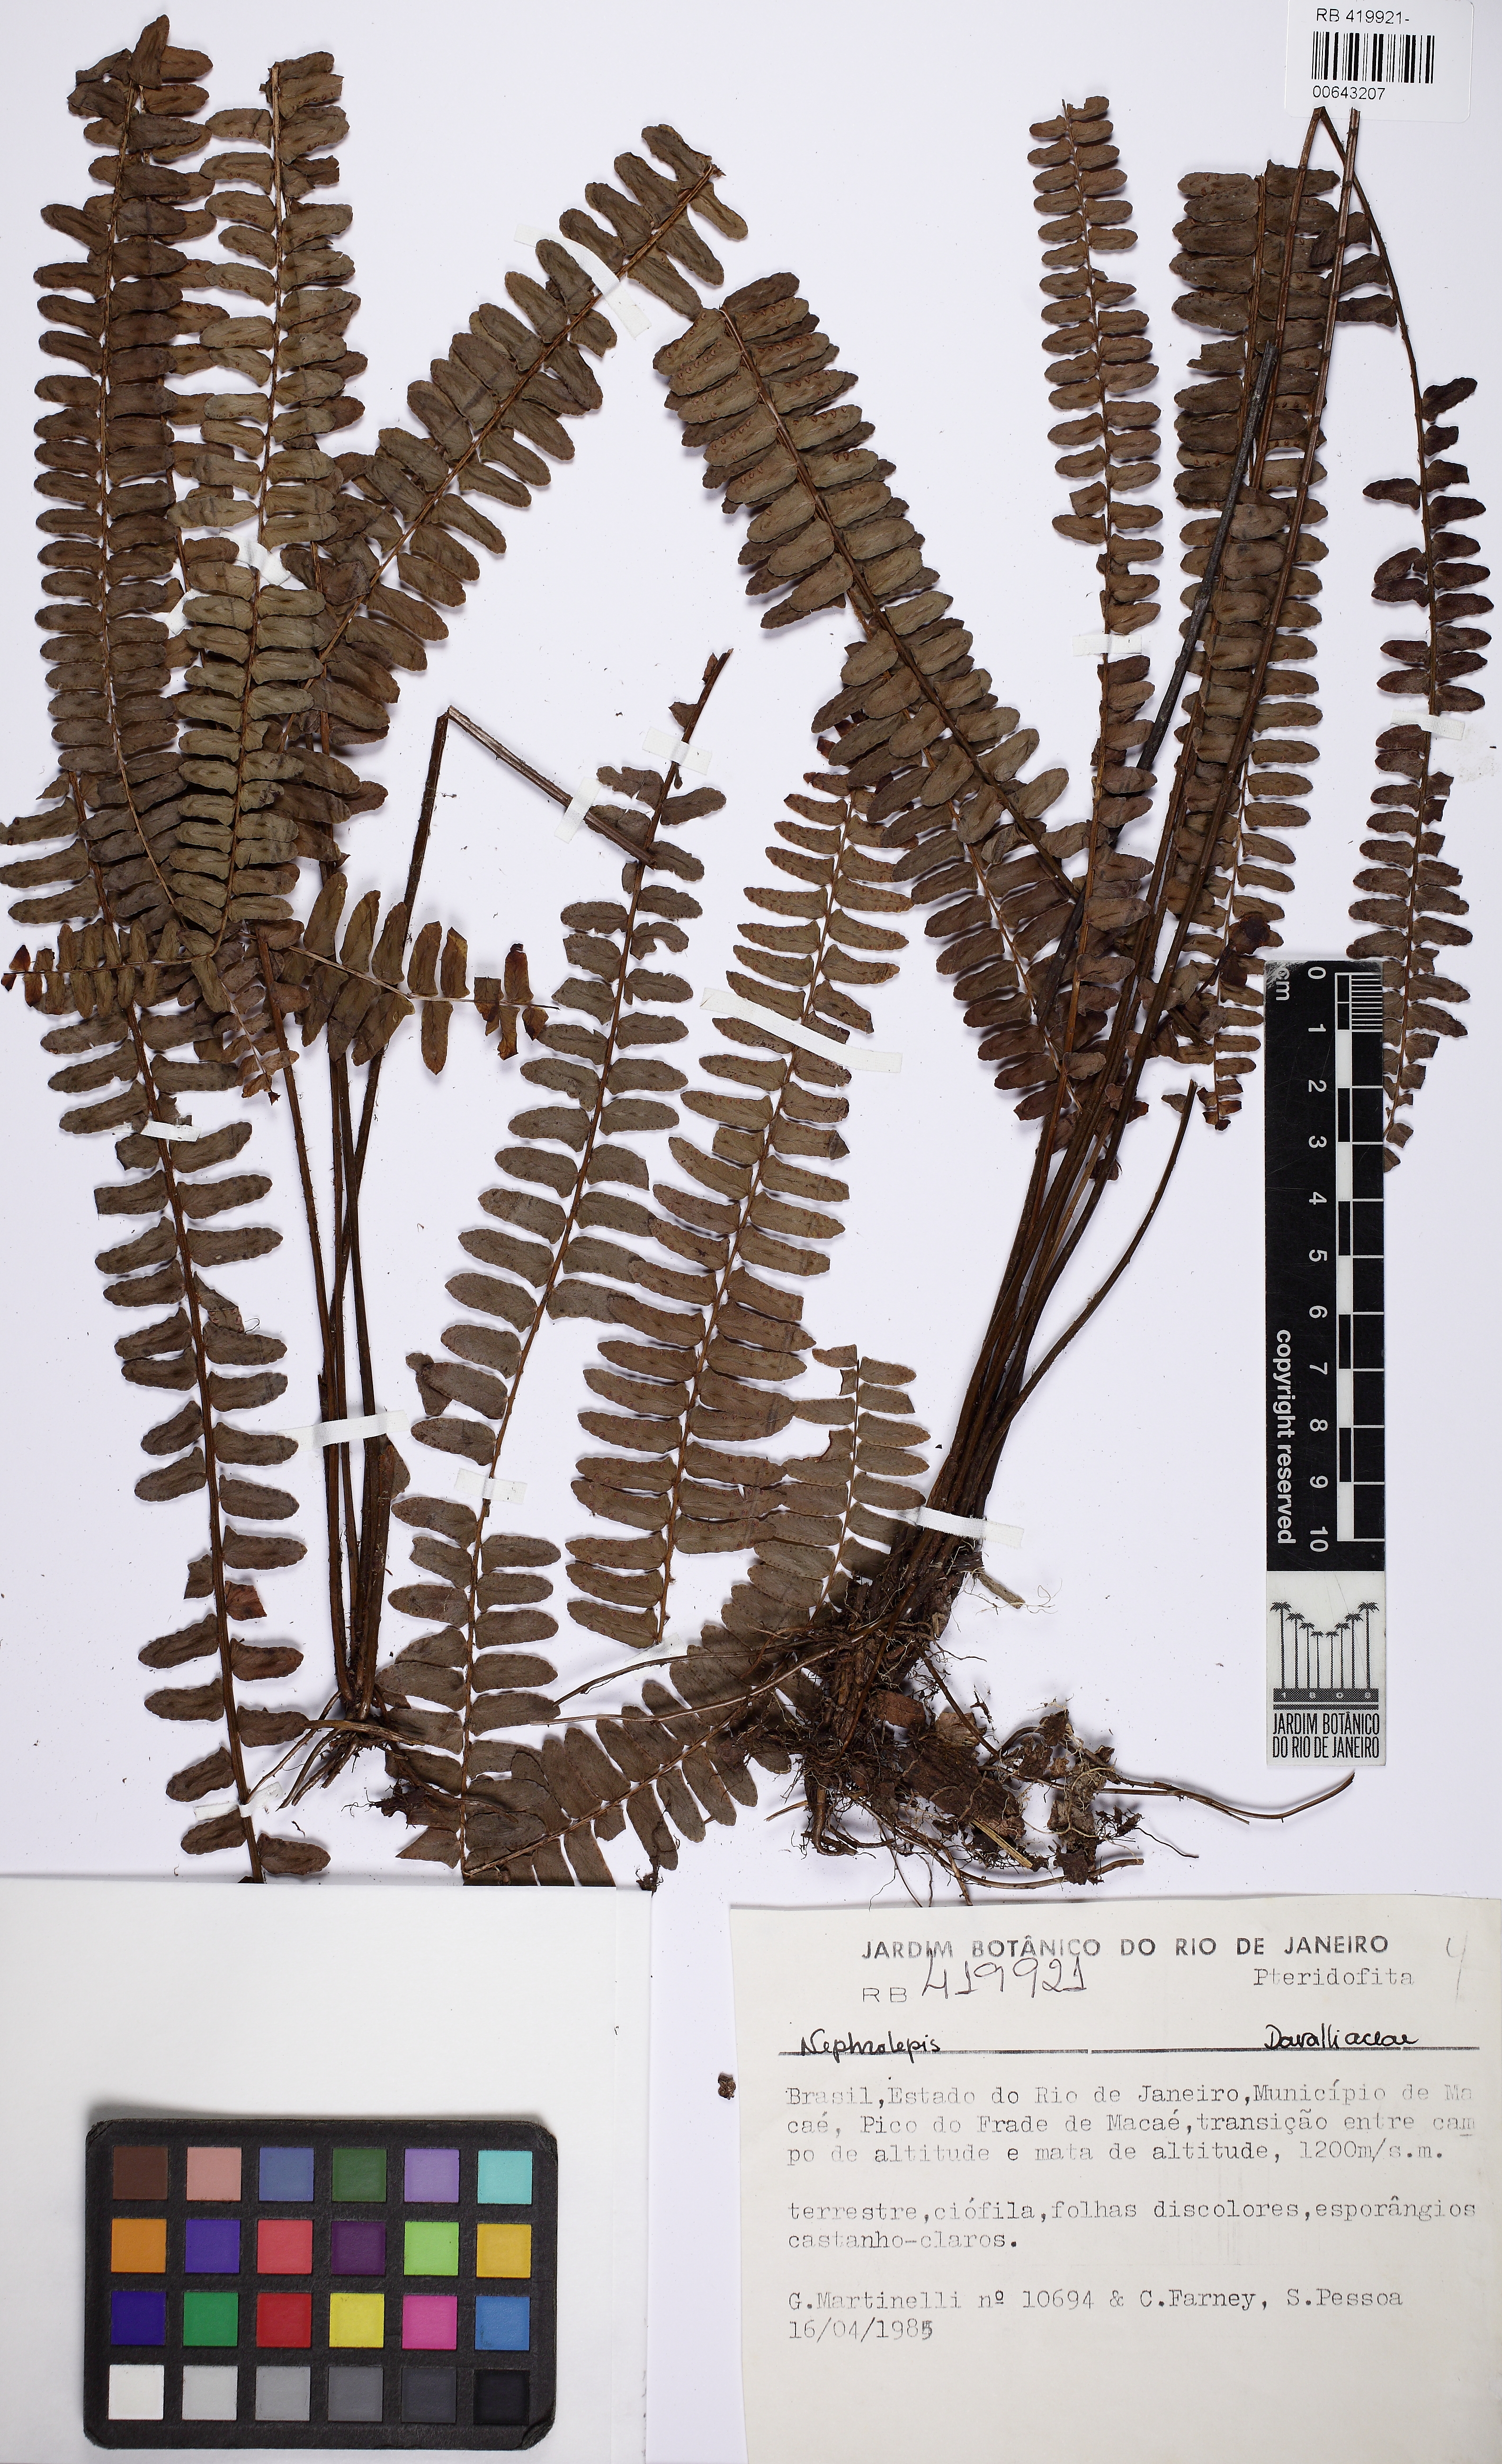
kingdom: Plantae
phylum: Tracheophyta
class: Polypodiopsida
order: Polypodiales
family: Nephrolepidaceae
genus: Nephrolepis
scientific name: Nephrolepis
